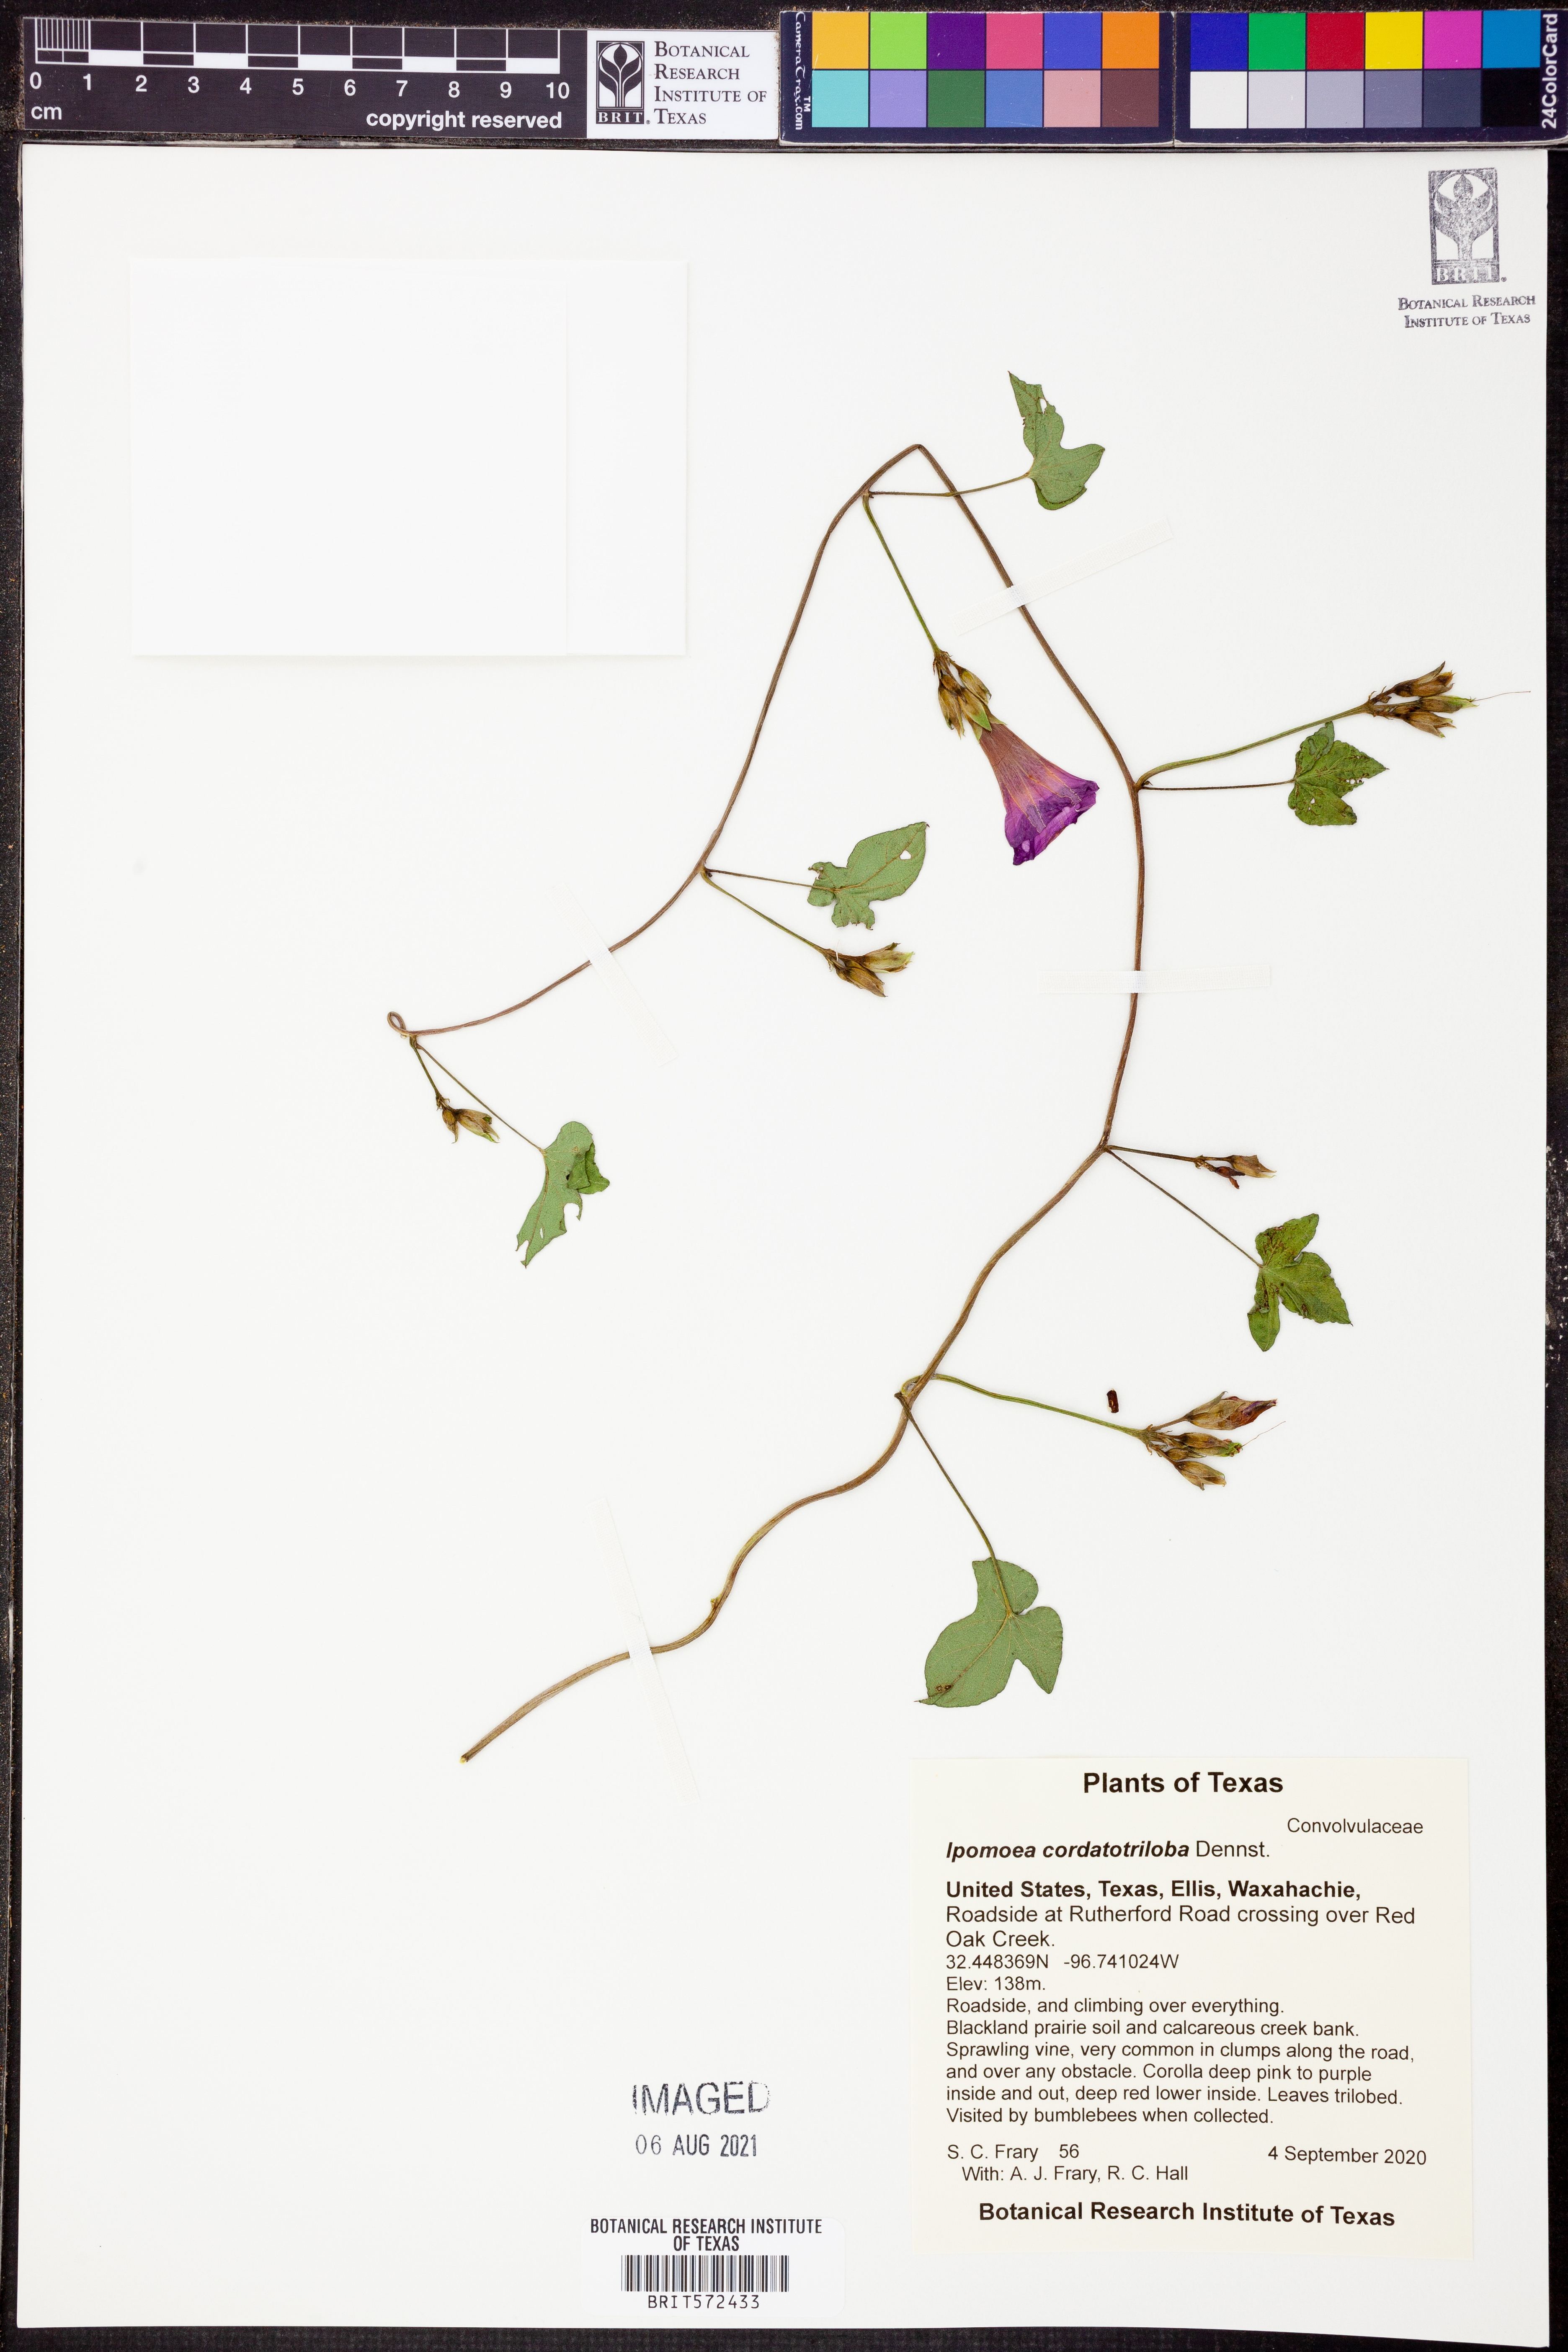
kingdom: Plantae
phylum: Tracheophyta
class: Magnoliopsida
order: Solanales
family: Convolvulaceae
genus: Ipomoea
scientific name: Ipomoea cordatotriloba
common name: Cotton morning glory
